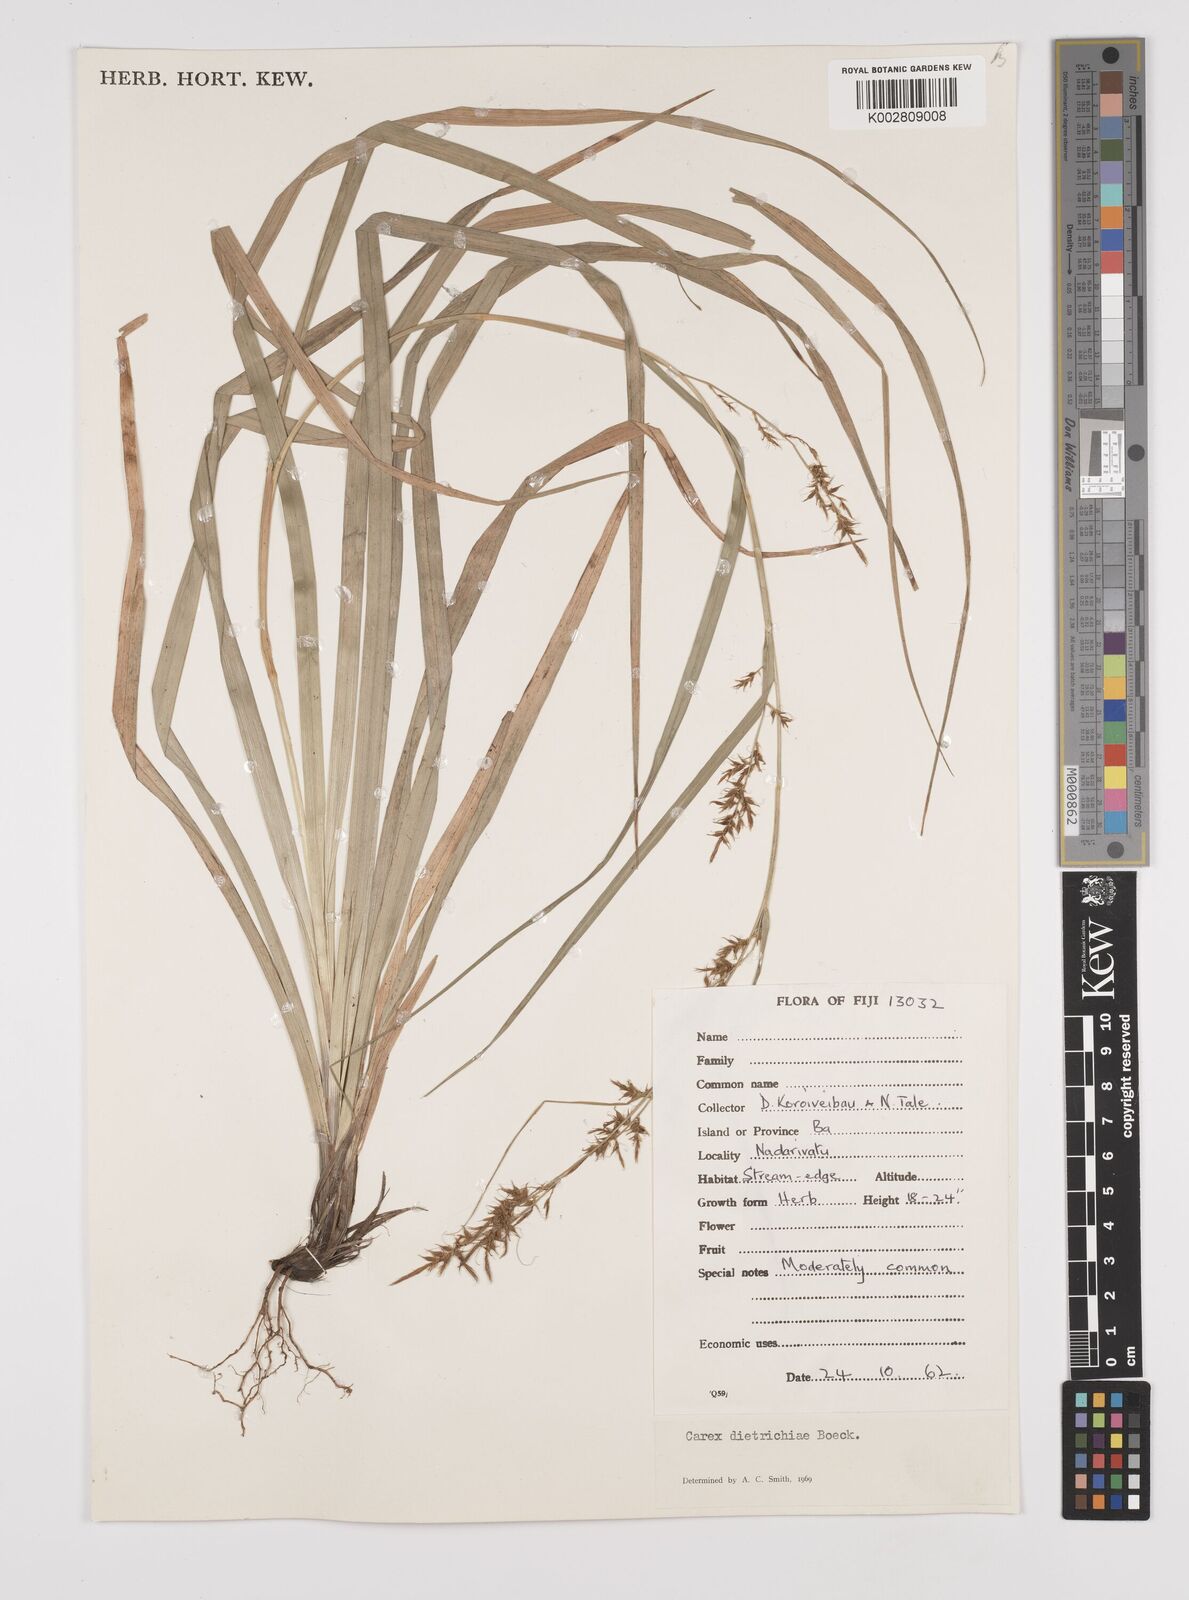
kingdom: Plantae
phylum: Tracheophyta
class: Liliopsida
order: Poales
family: Cyperaceae
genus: Carex
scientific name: Carex indica
